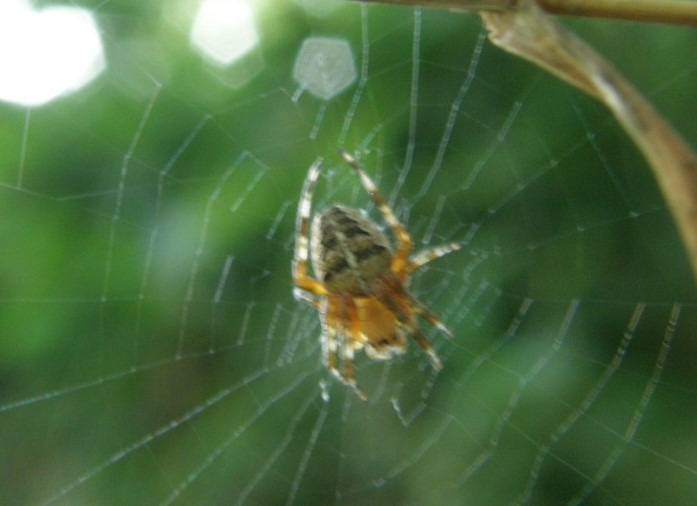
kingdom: Animalia
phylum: Arthropoda
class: Arachnida
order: Araneae
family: Araneidae
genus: Araneus
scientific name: Araneus diadematus
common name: Korsedderkop
